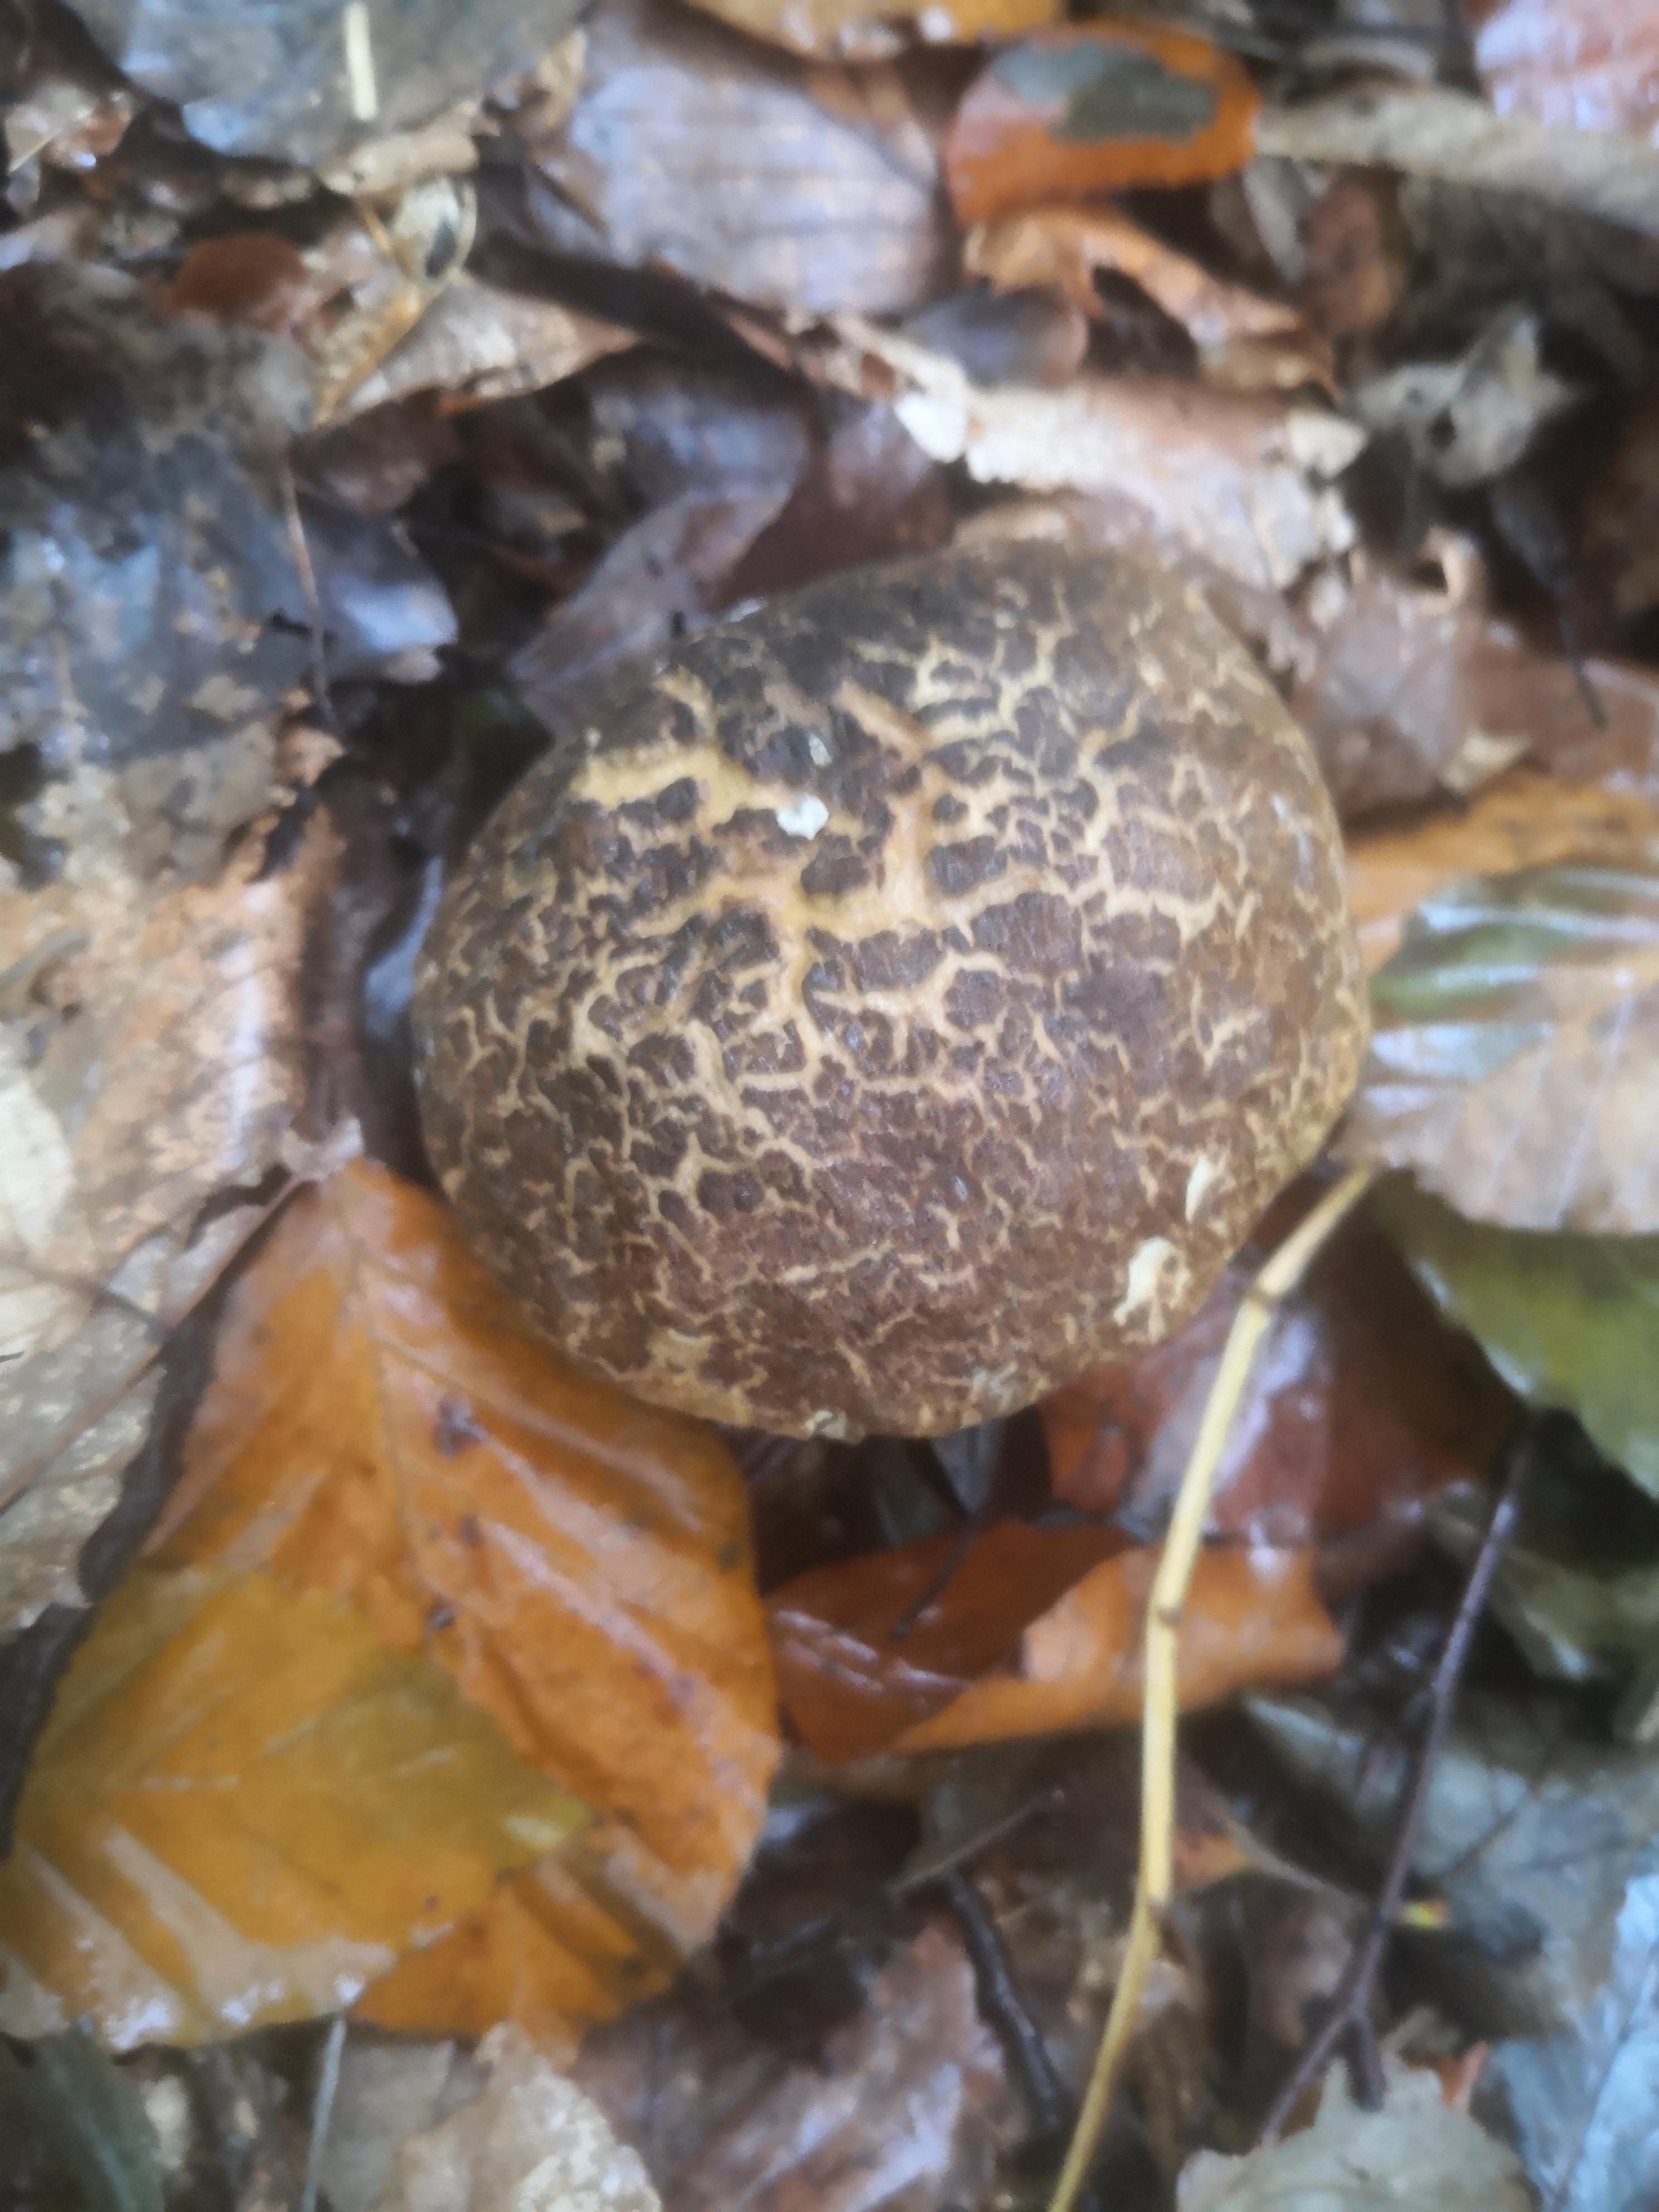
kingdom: Fungi
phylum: Basidiomycota
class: Agaricomycetes
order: Boletales
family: Boletaceae
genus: Xerocomellus
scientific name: Xerocomellus
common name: dværgrørhat
